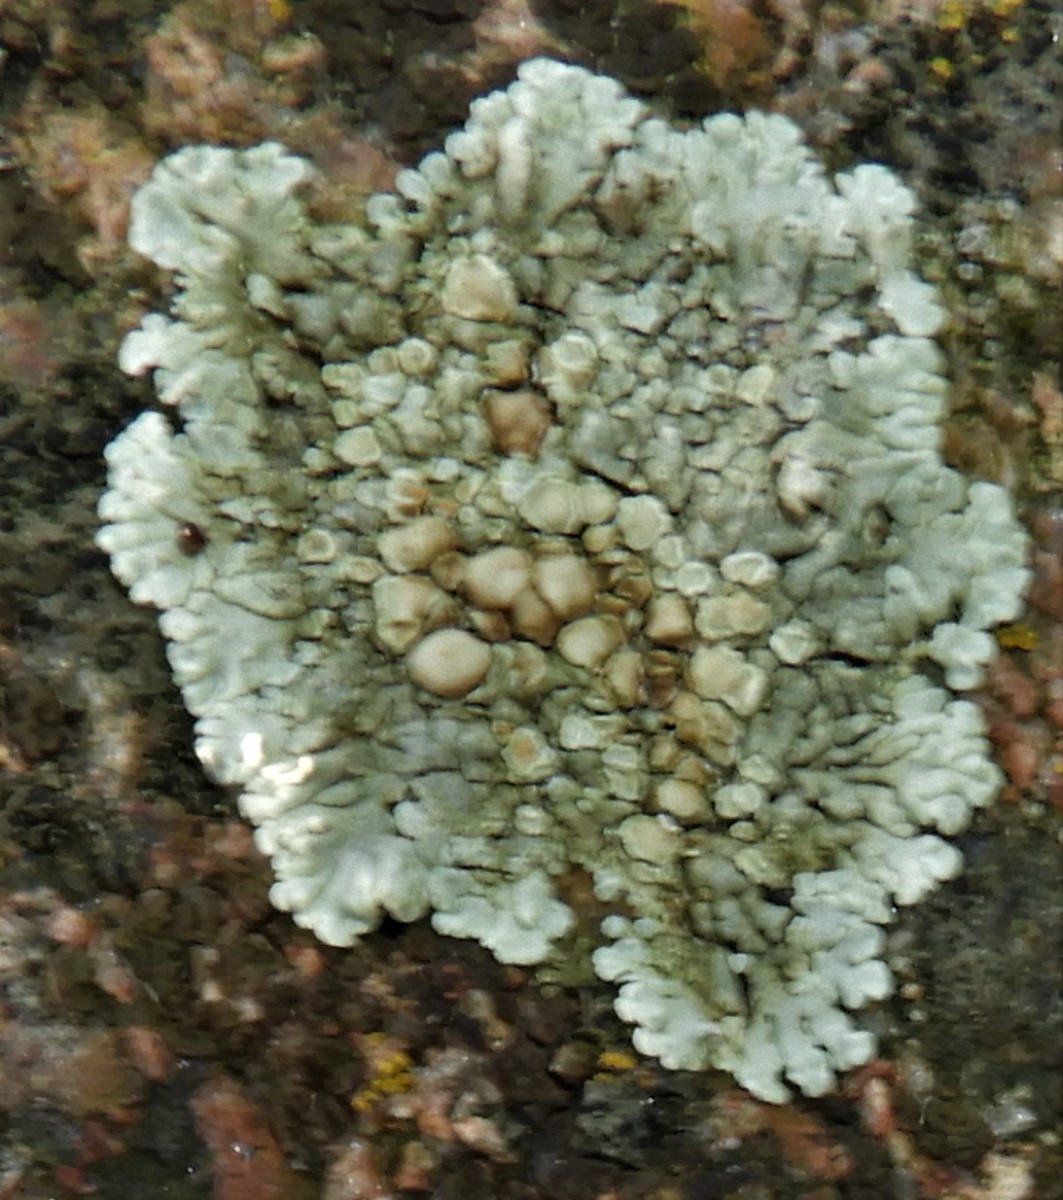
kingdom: Fungi
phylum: Ascomycota
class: Lecanoromycetes
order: Lecanorales
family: Lecanoraceae
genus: Protoparmeliopsis
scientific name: Protoparmeliopsis muralis
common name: randfliget kantskivelav
